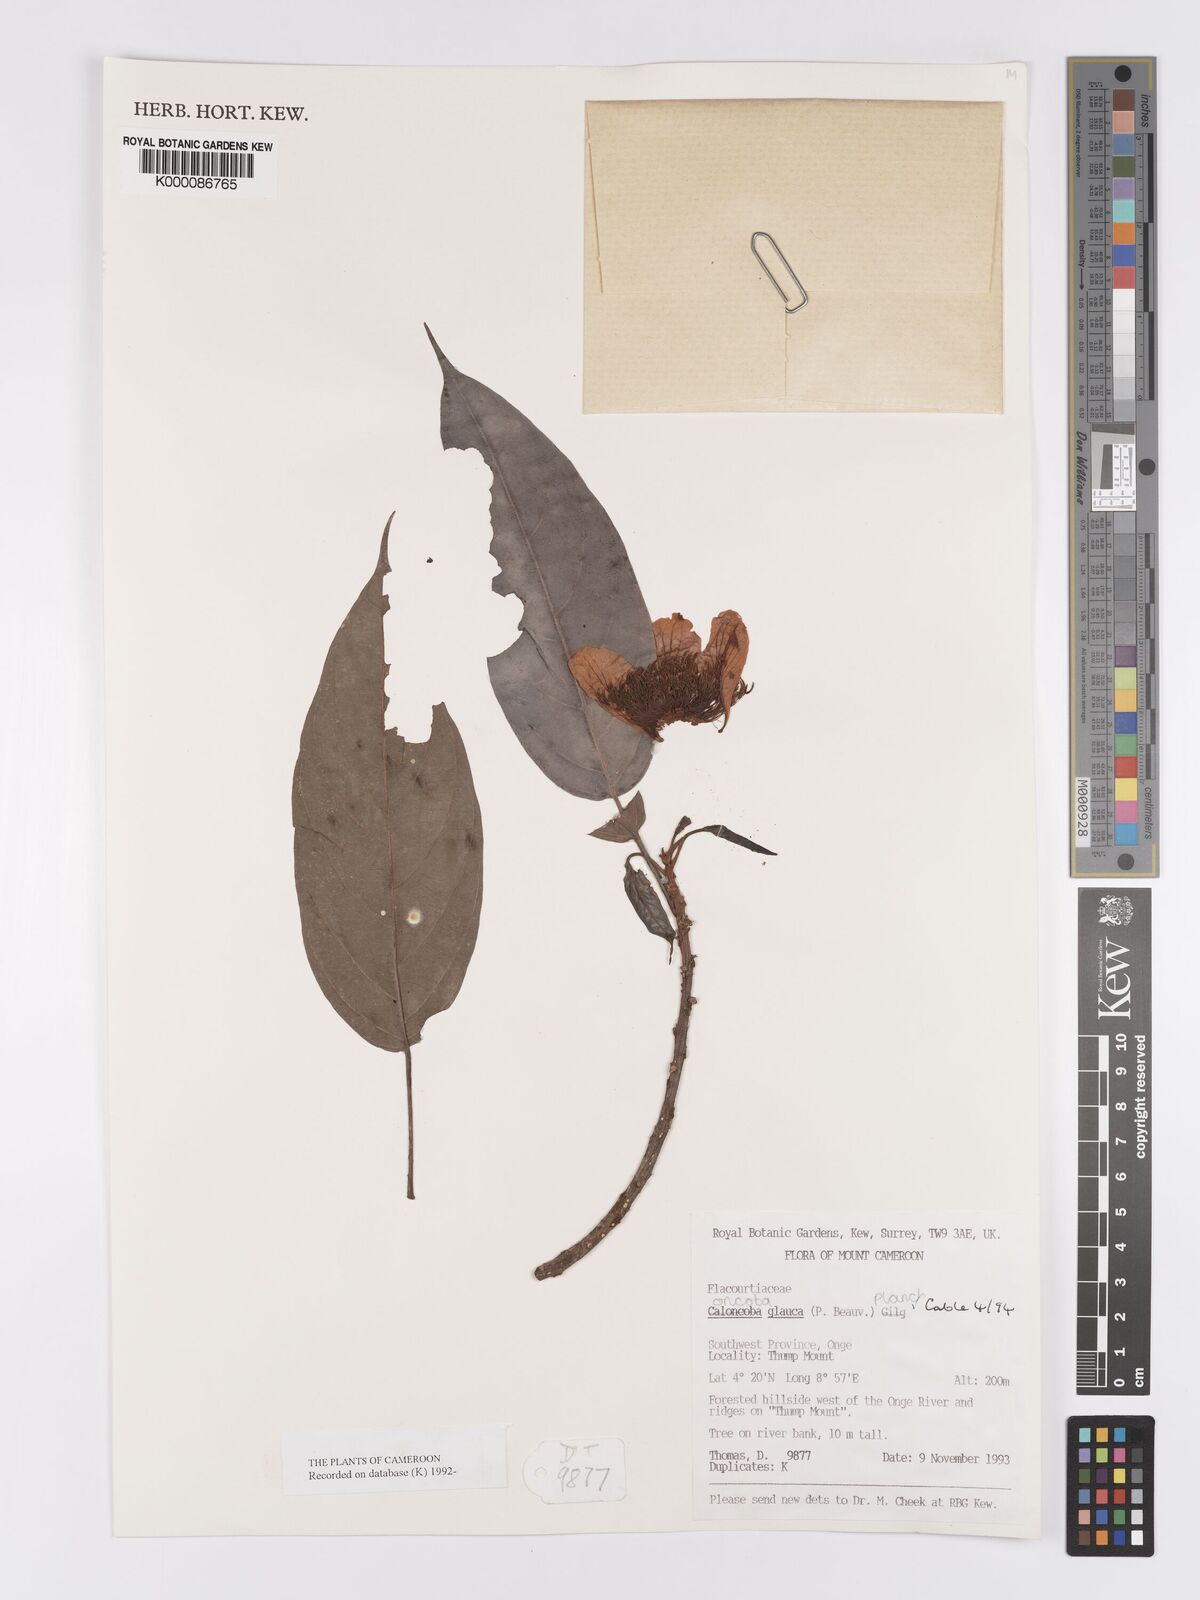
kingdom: Plantae
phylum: Tracheophyta
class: Magnoliopsida
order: Malpighiales
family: Achariaceae
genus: Caloncoba
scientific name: Caloncoba glauca
